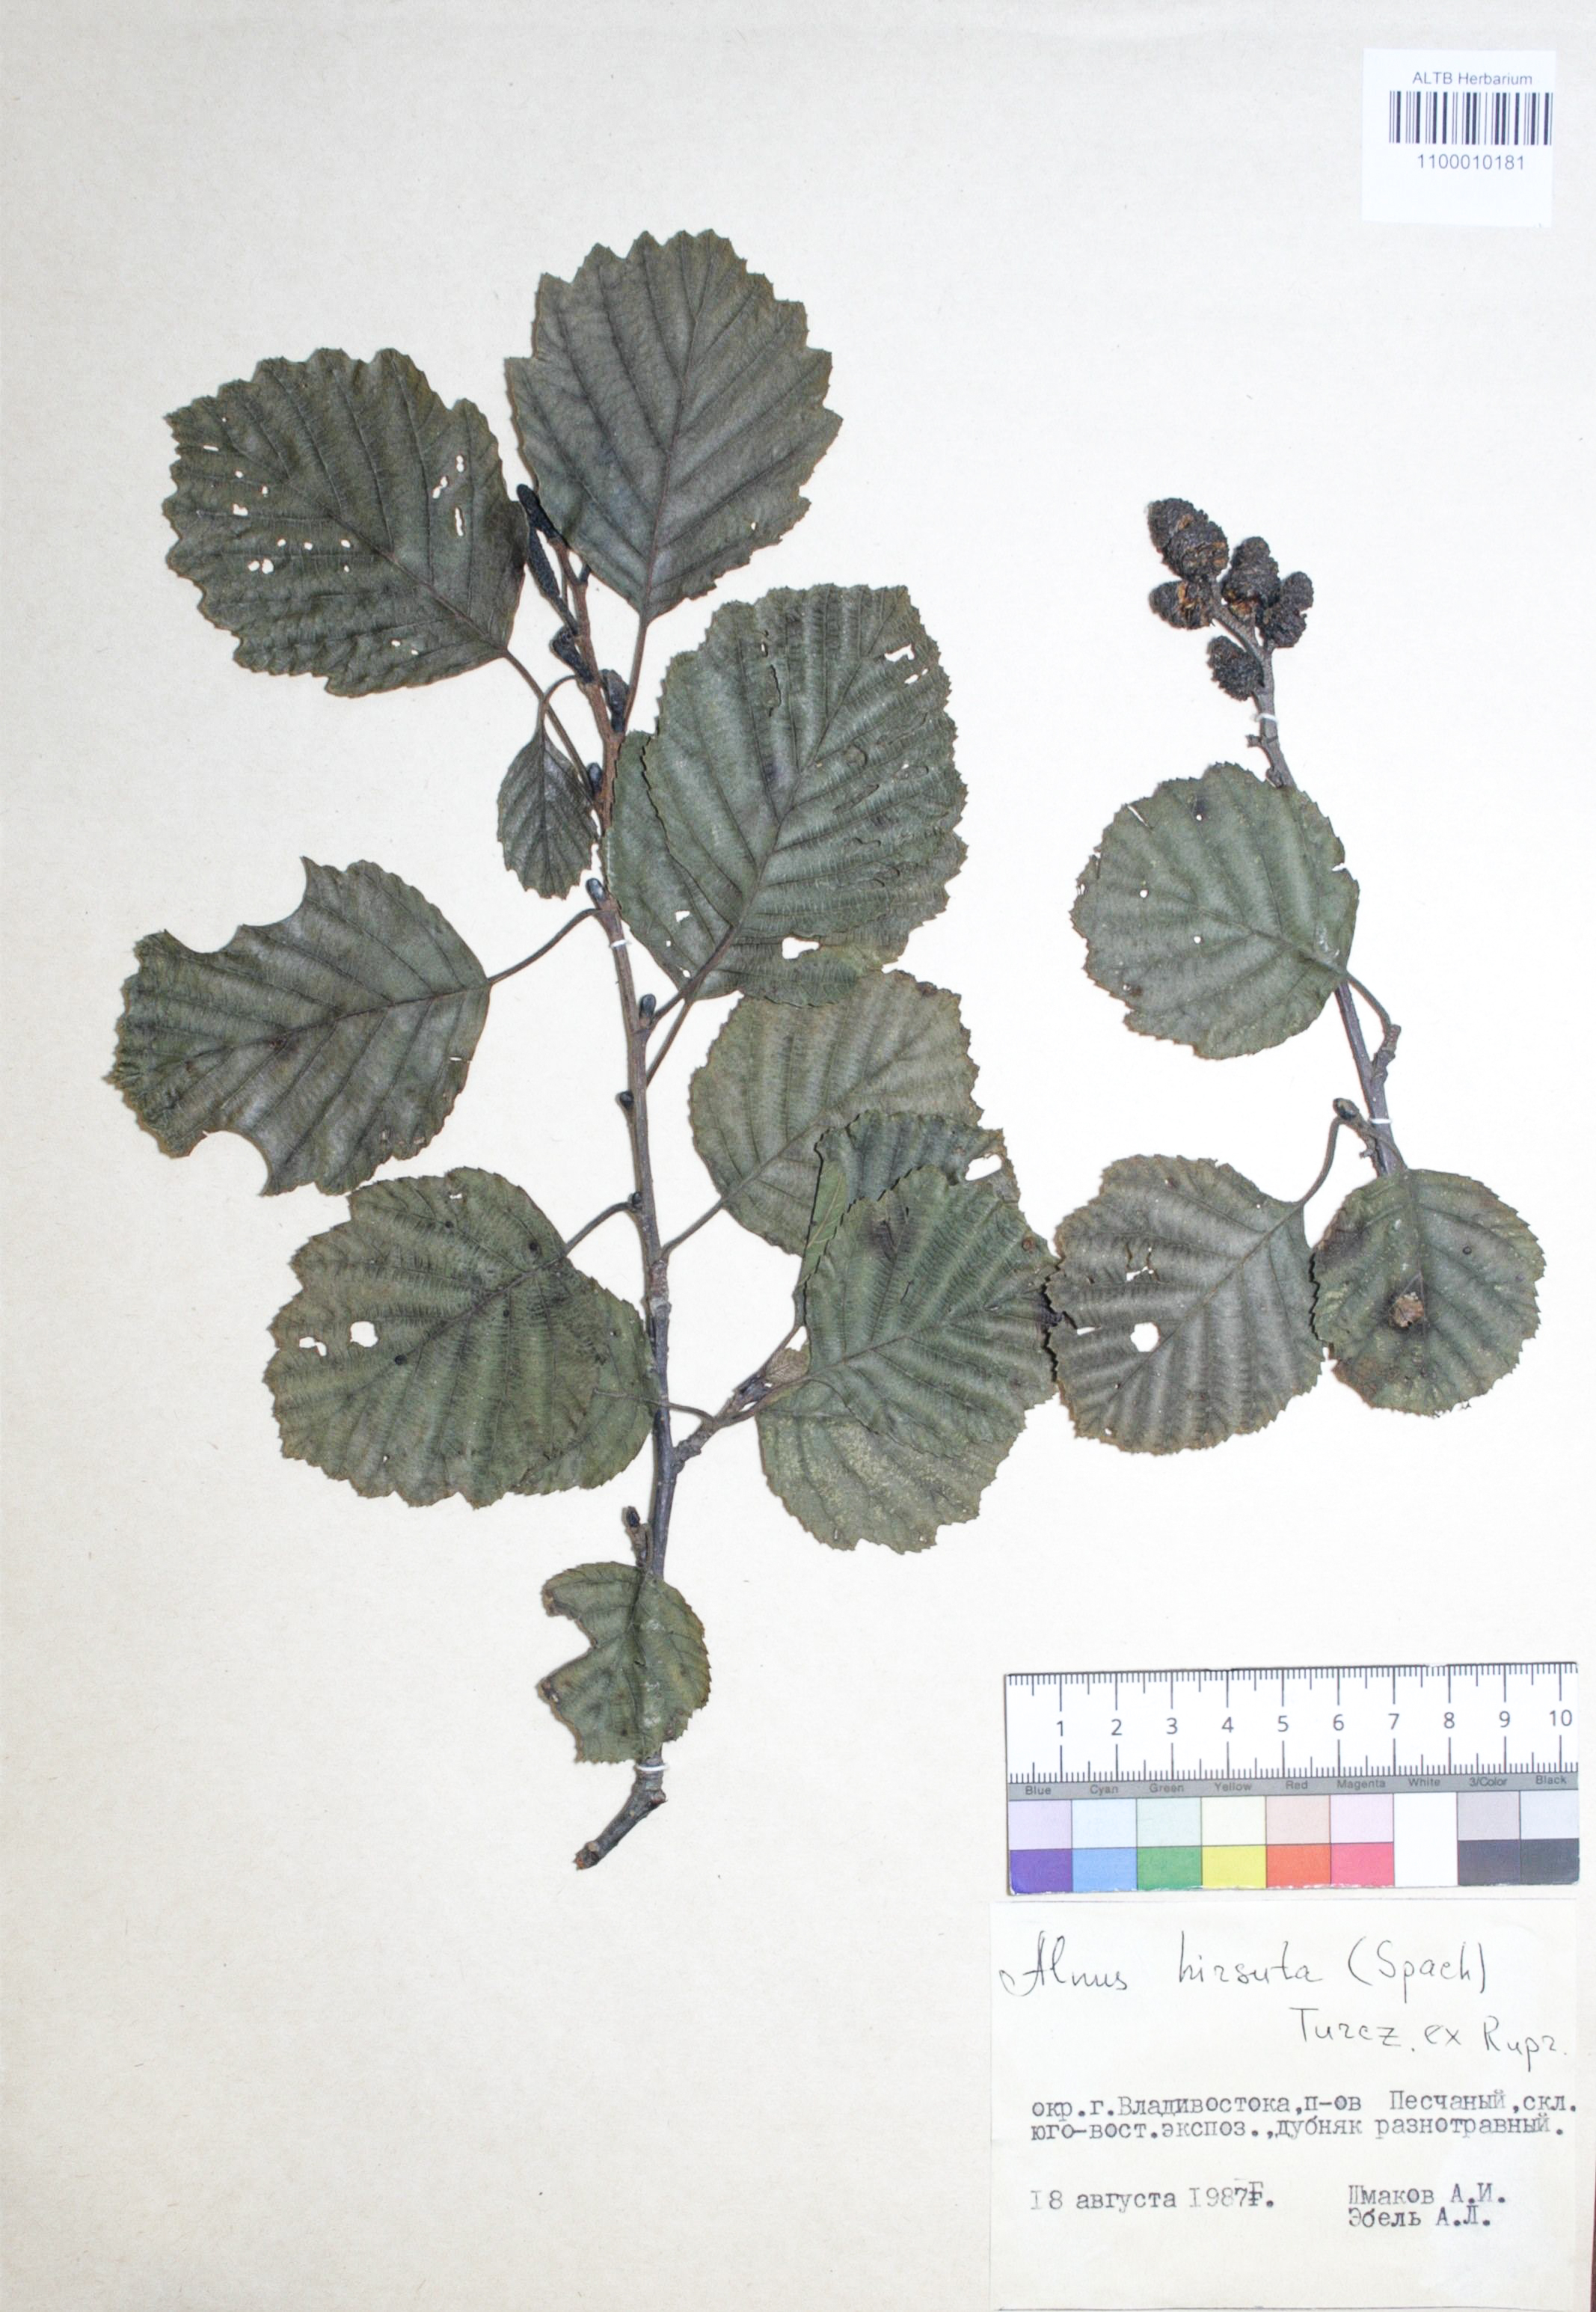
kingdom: Plantae
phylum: Tracheophyta
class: Magnoliopsida
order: Fagales
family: Betulaceae
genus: Alnus
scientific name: Alnus hirsuta
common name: Manchurian alder
